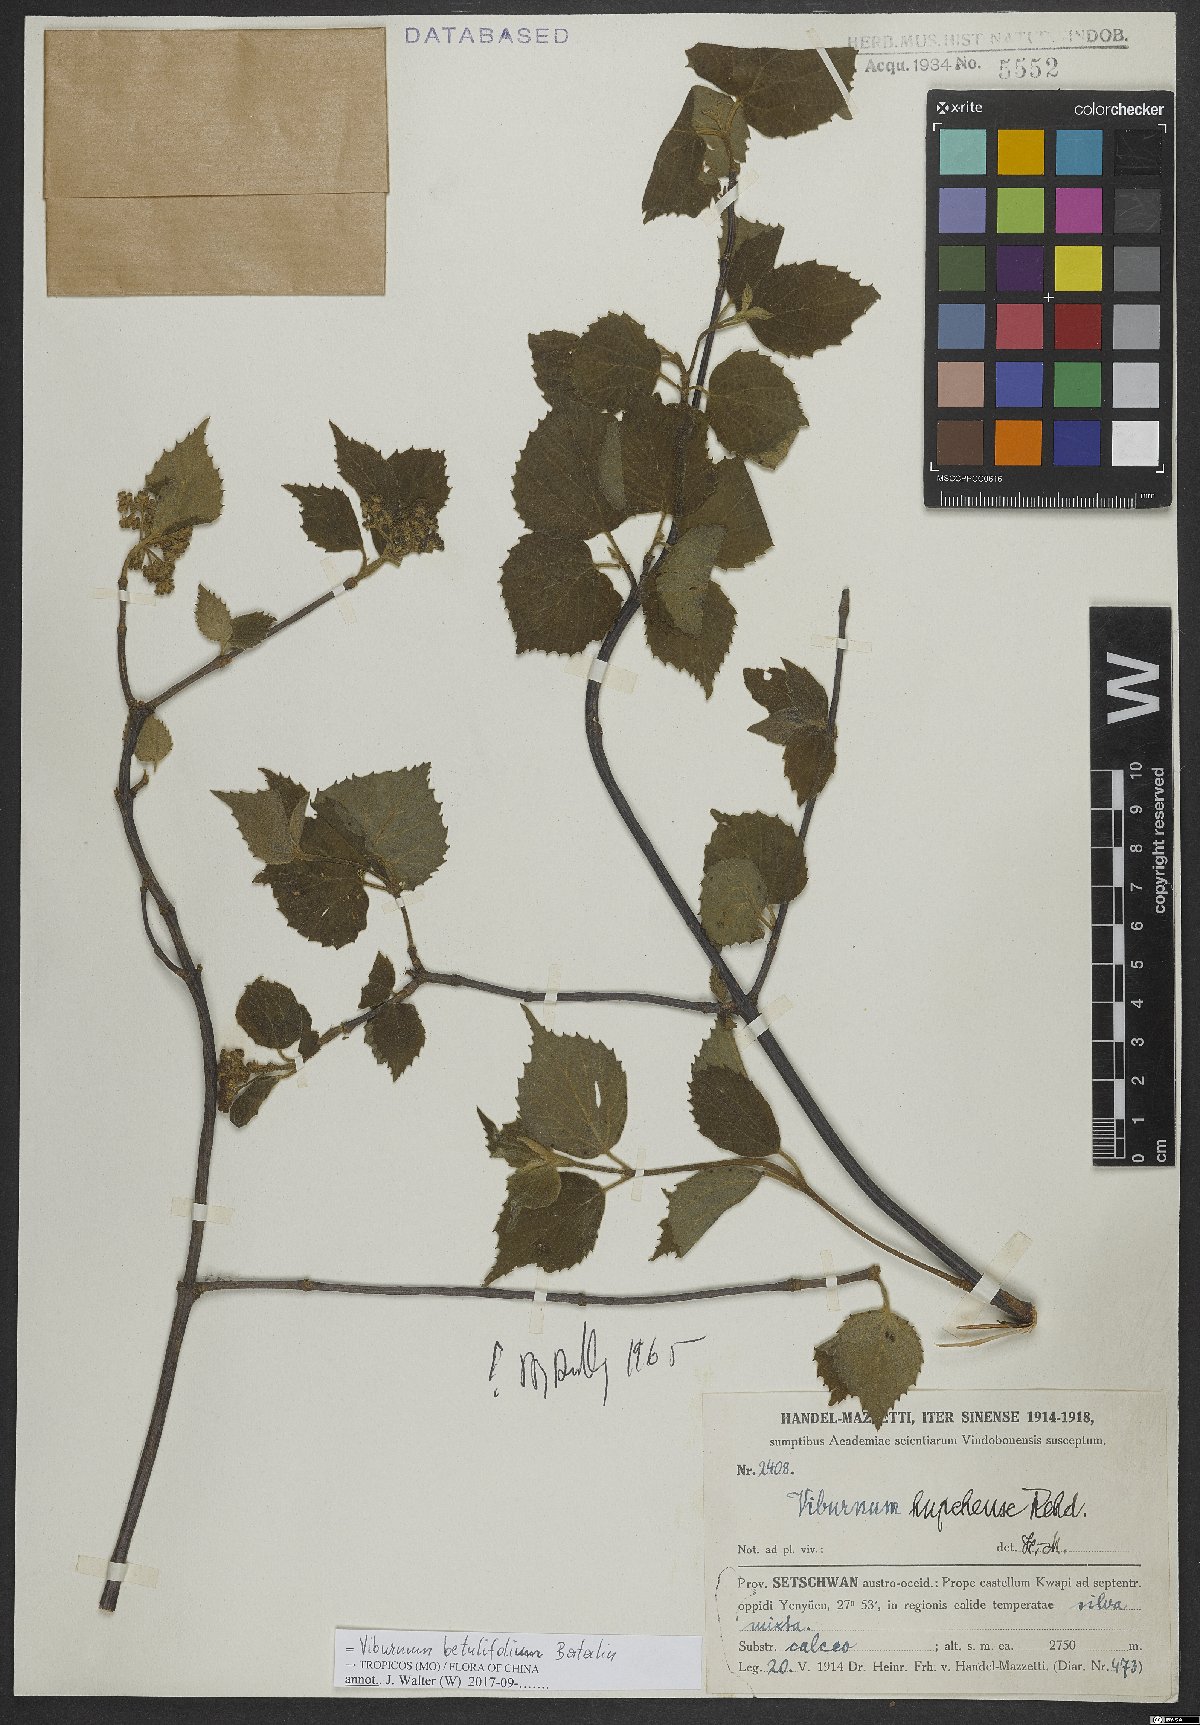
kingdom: Plantae
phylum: Tracheophyta
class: Magnoliopsida
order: Dipsacales
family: Viburnaceae
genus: Viburnum
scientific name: Viburnum betulifolium
